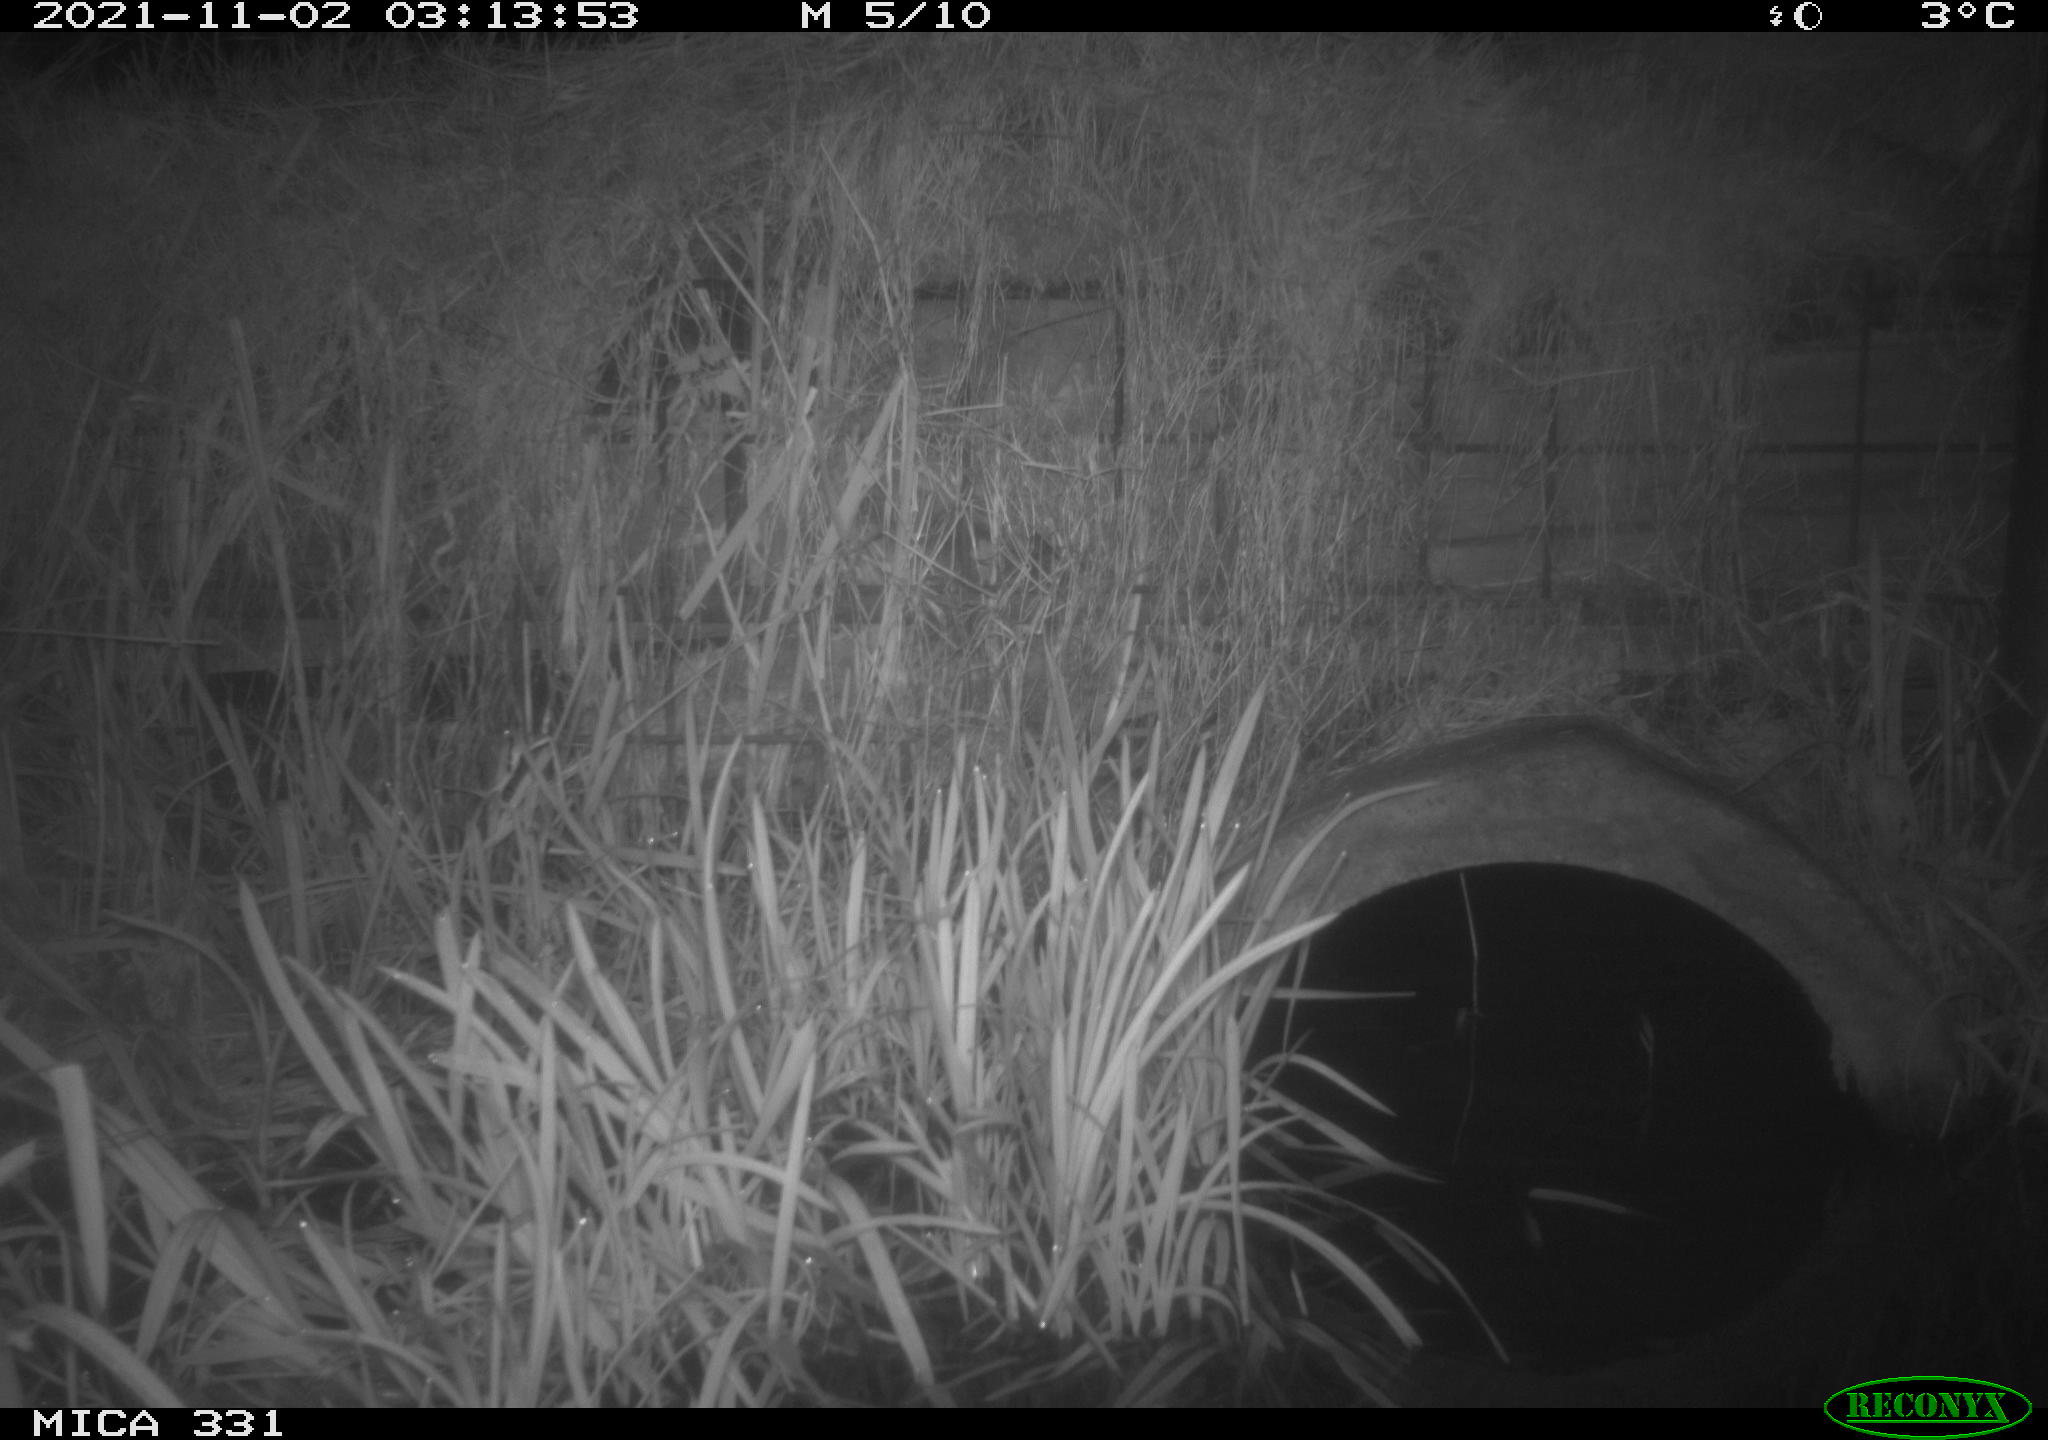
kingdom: Animalia
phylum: Chordata
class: Mammalia
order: Rodentia
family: Muridae
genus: Rattus
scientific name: Rattus norvegicus
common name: Brown rat
